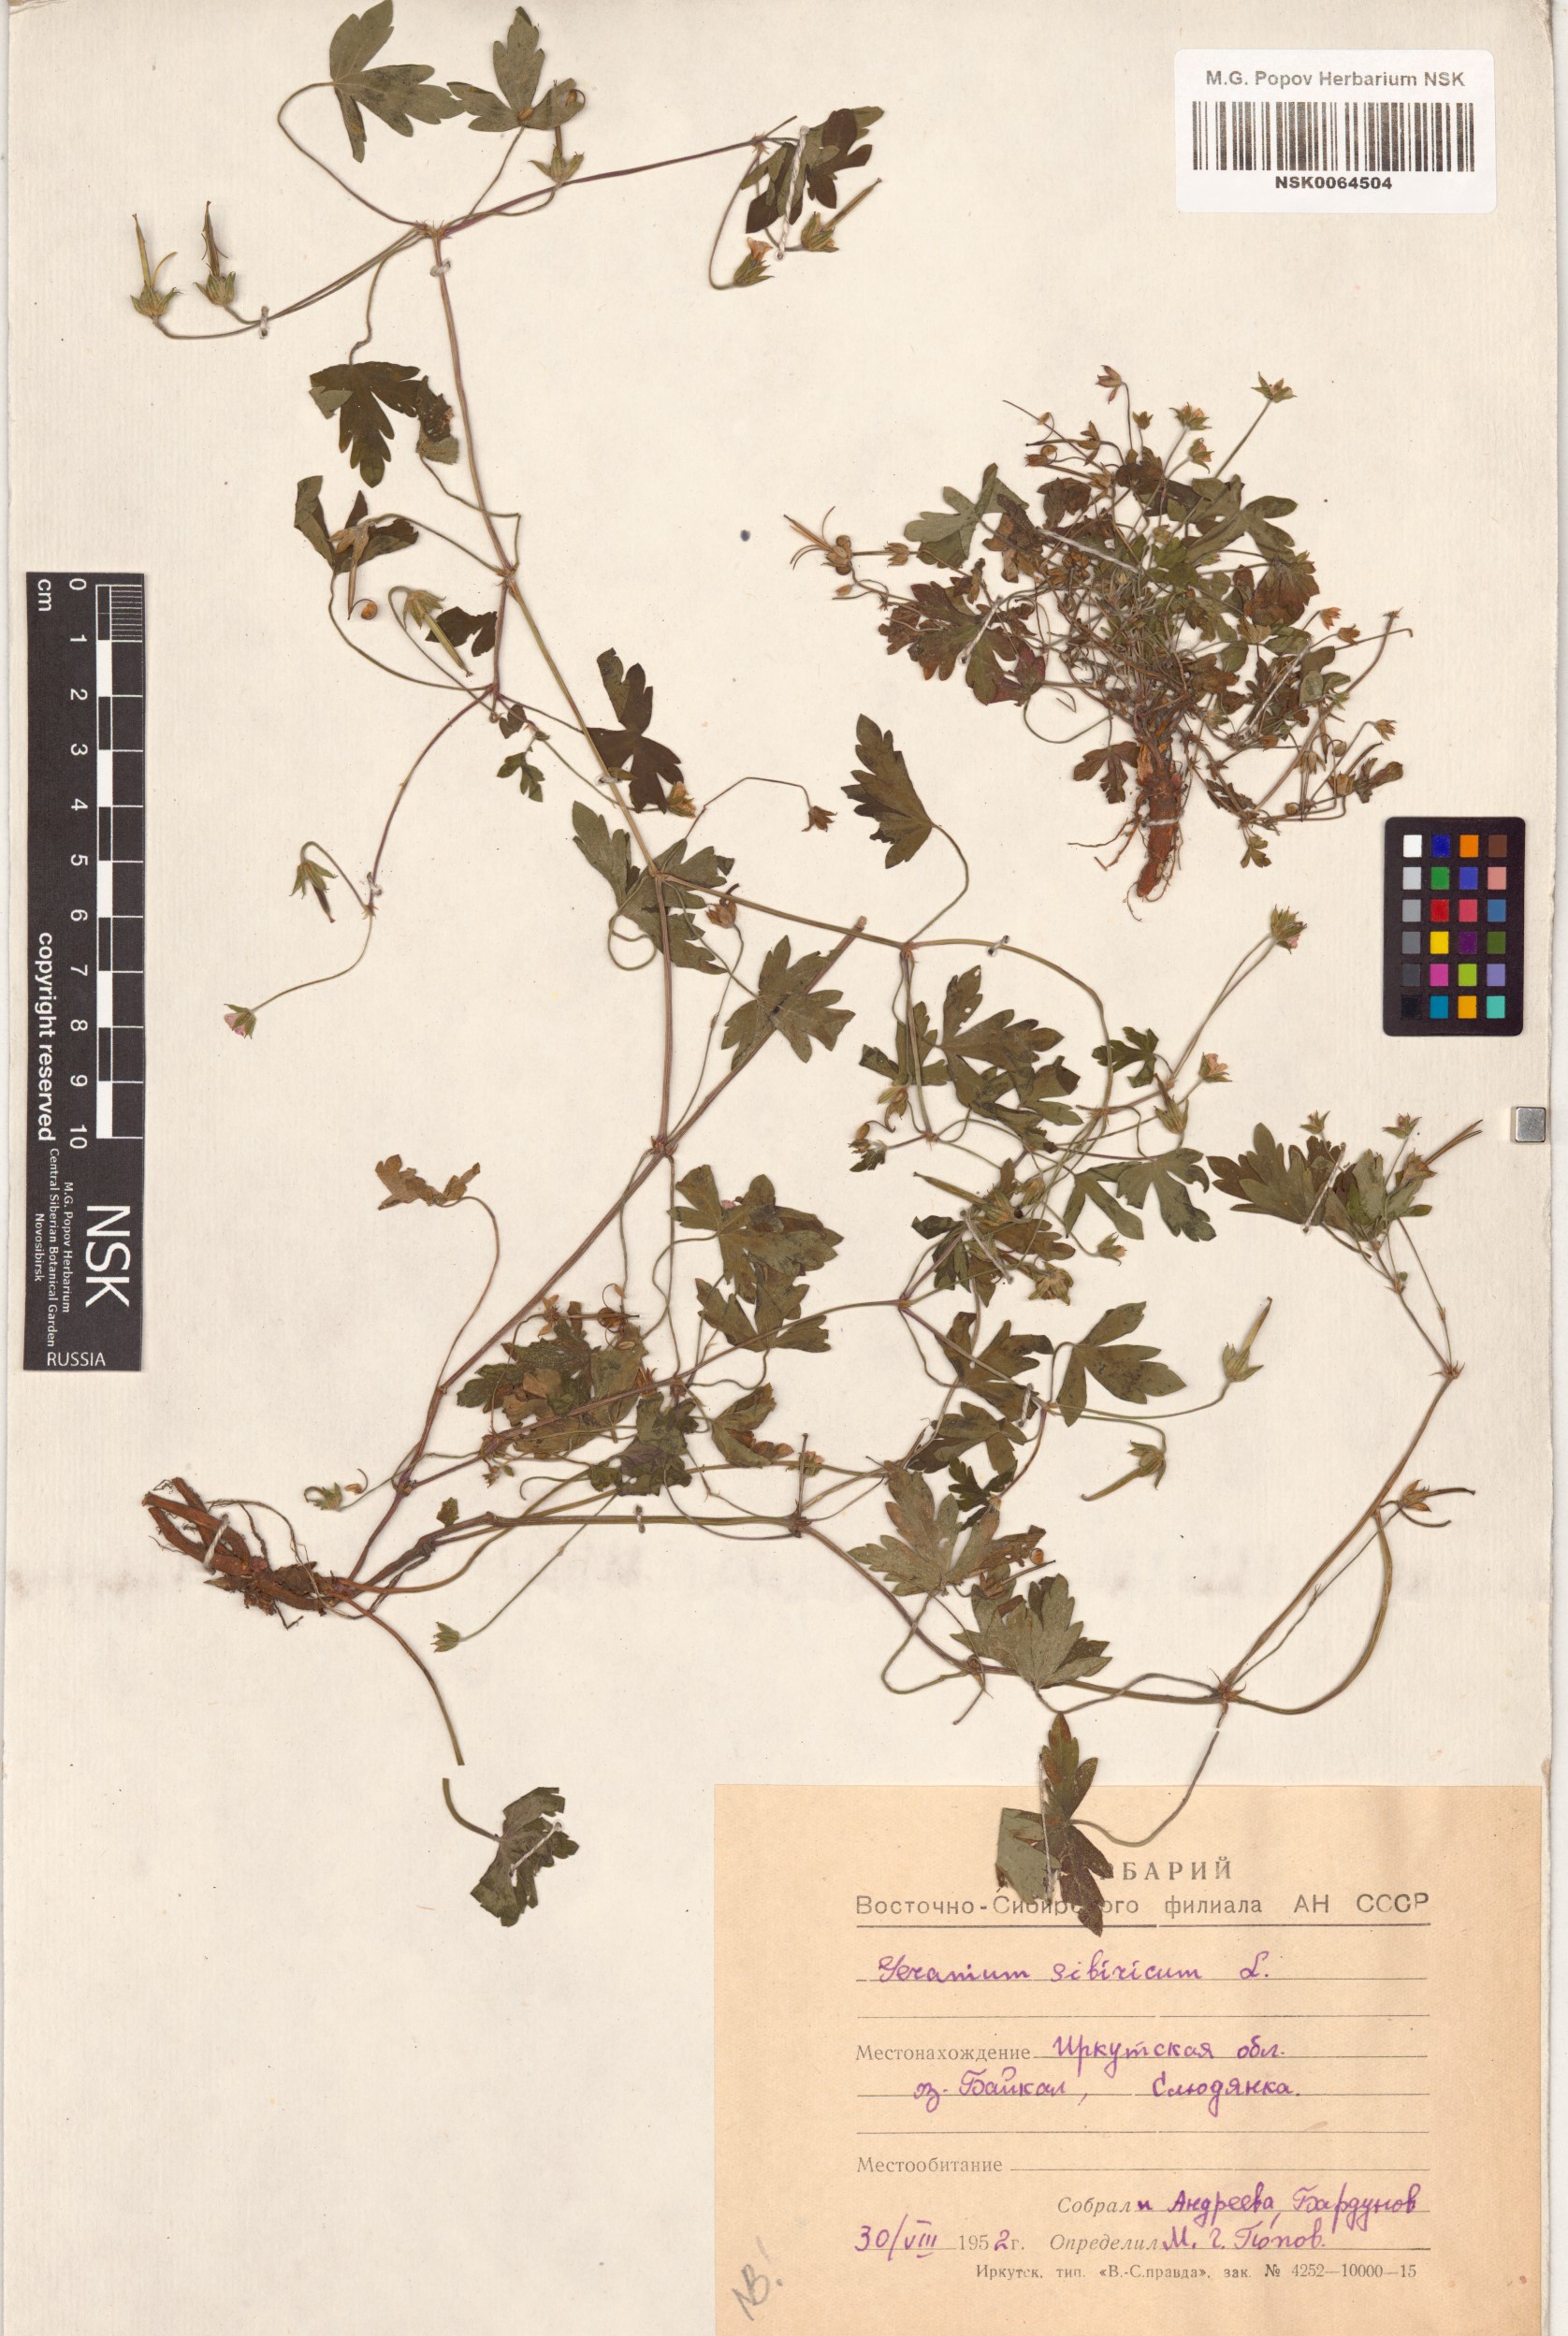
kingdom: Plantae
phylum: Tracheophyta
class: Magnoliopsida
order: Geraniales
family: Geraniaceae
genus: Geranium
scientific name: Geranium sibiricum
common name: Siberian crane's-bill
